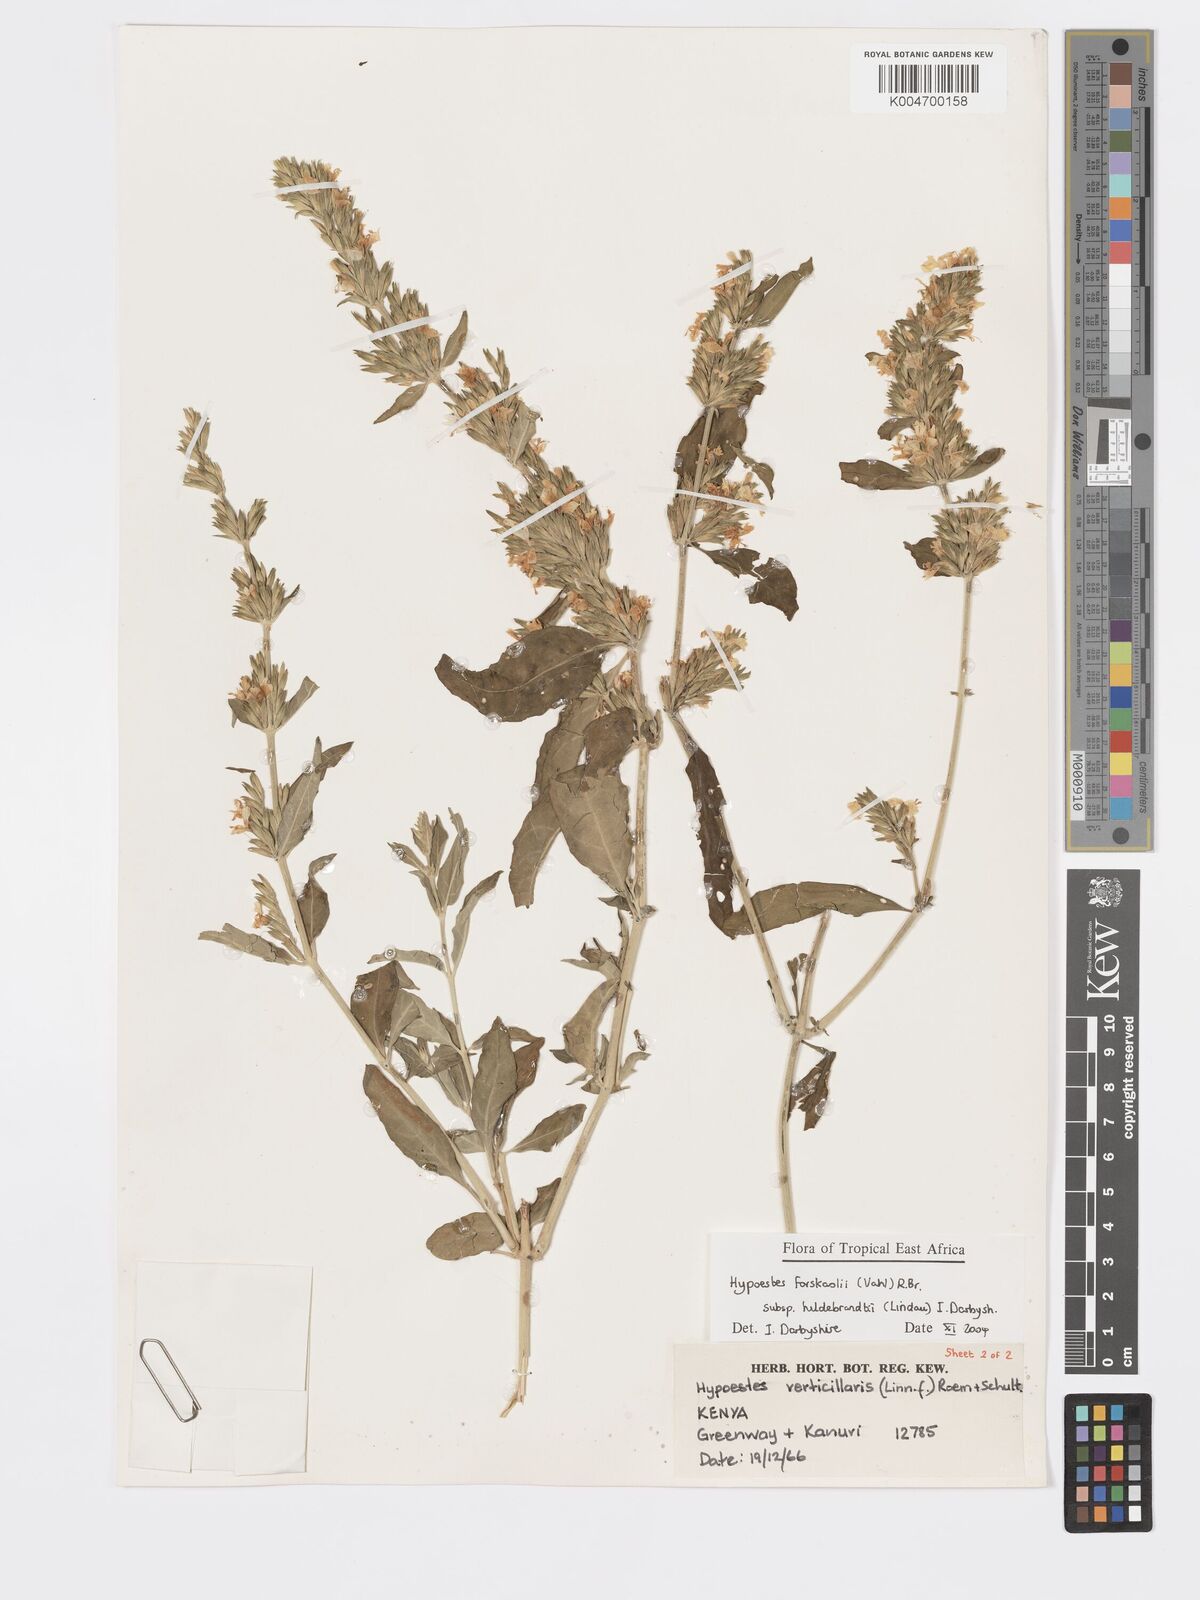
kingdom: Plantae
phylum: Tracheophyta
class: Magnoliopsida
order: Lamiales
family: Acanthaceae
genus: Hypoestes
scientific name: Hypoestes forskaolii
